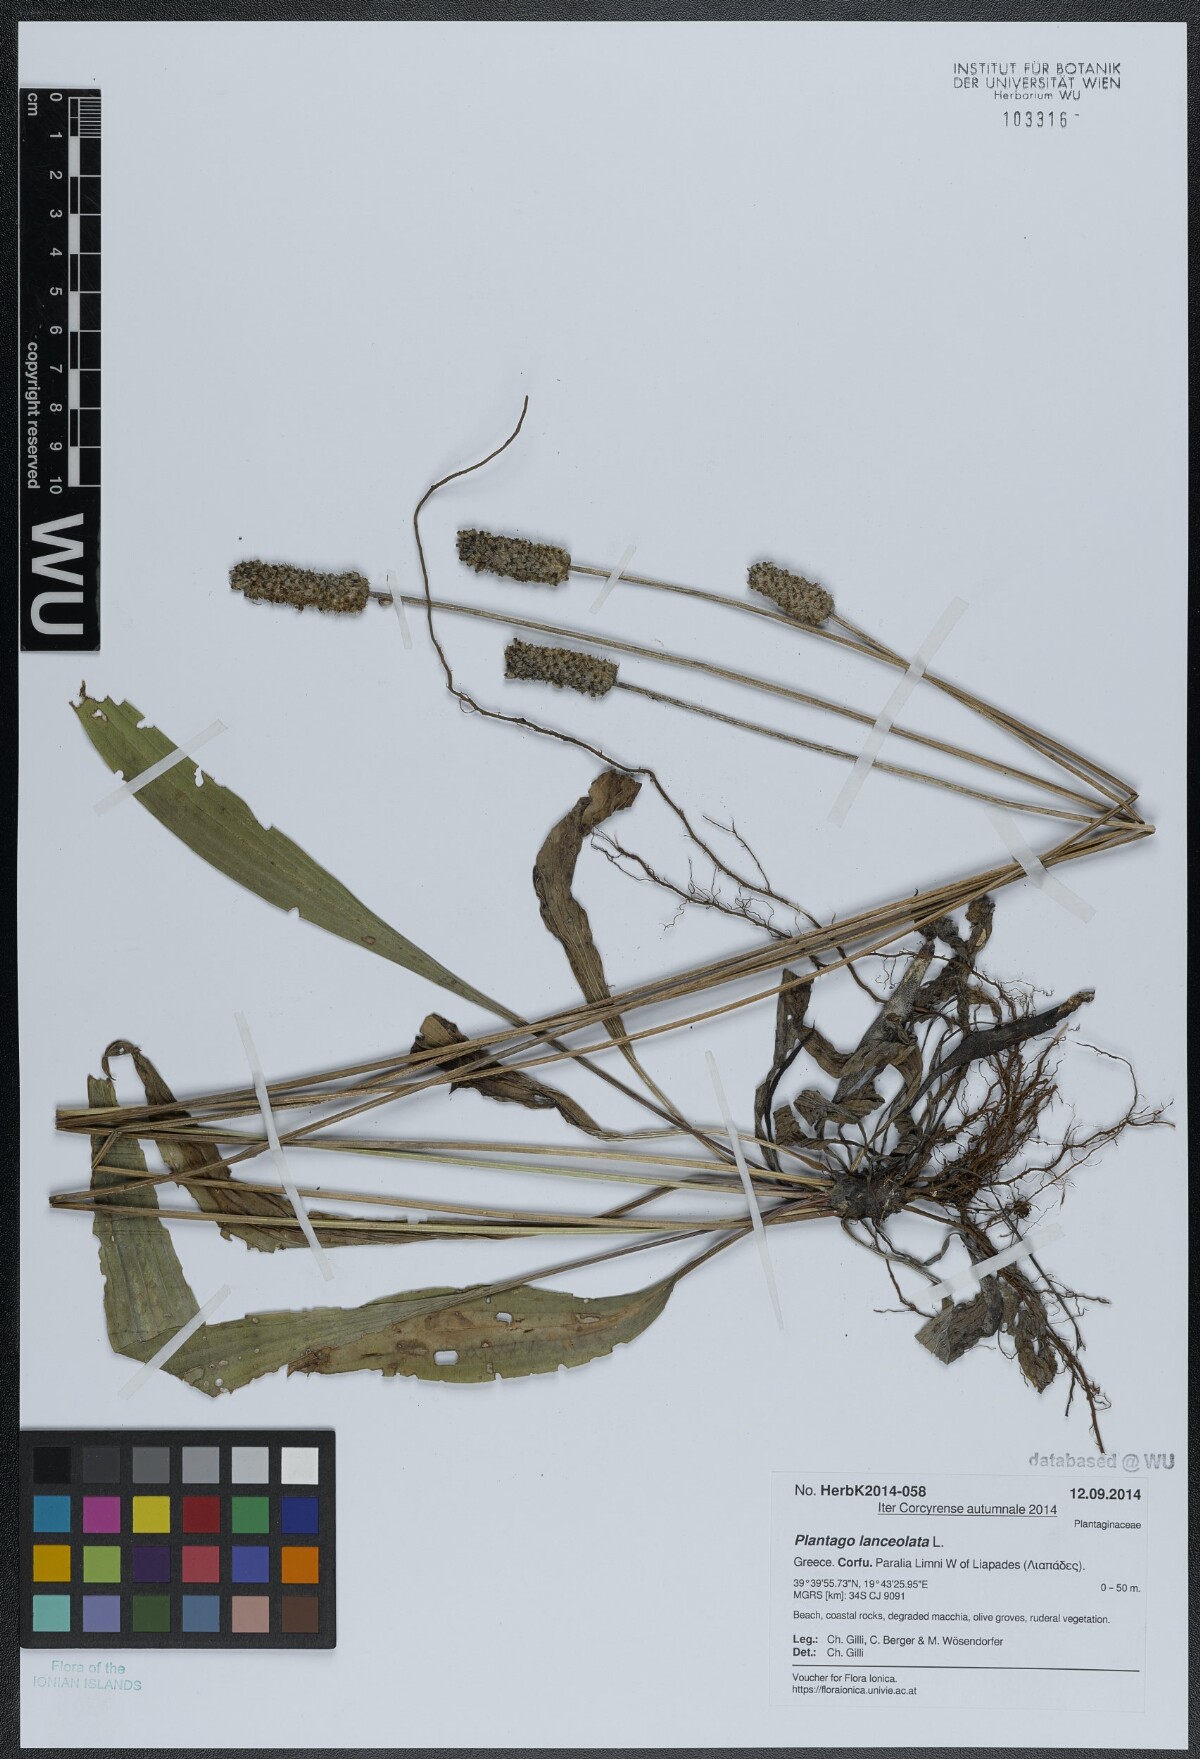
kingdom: Plantae
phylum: Tracheophyta
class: Magnoliopsida
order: Lamiales
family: Plantaginaceae
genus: Plantago
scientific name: Plantago lanceolata
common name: Ribwort plantain
